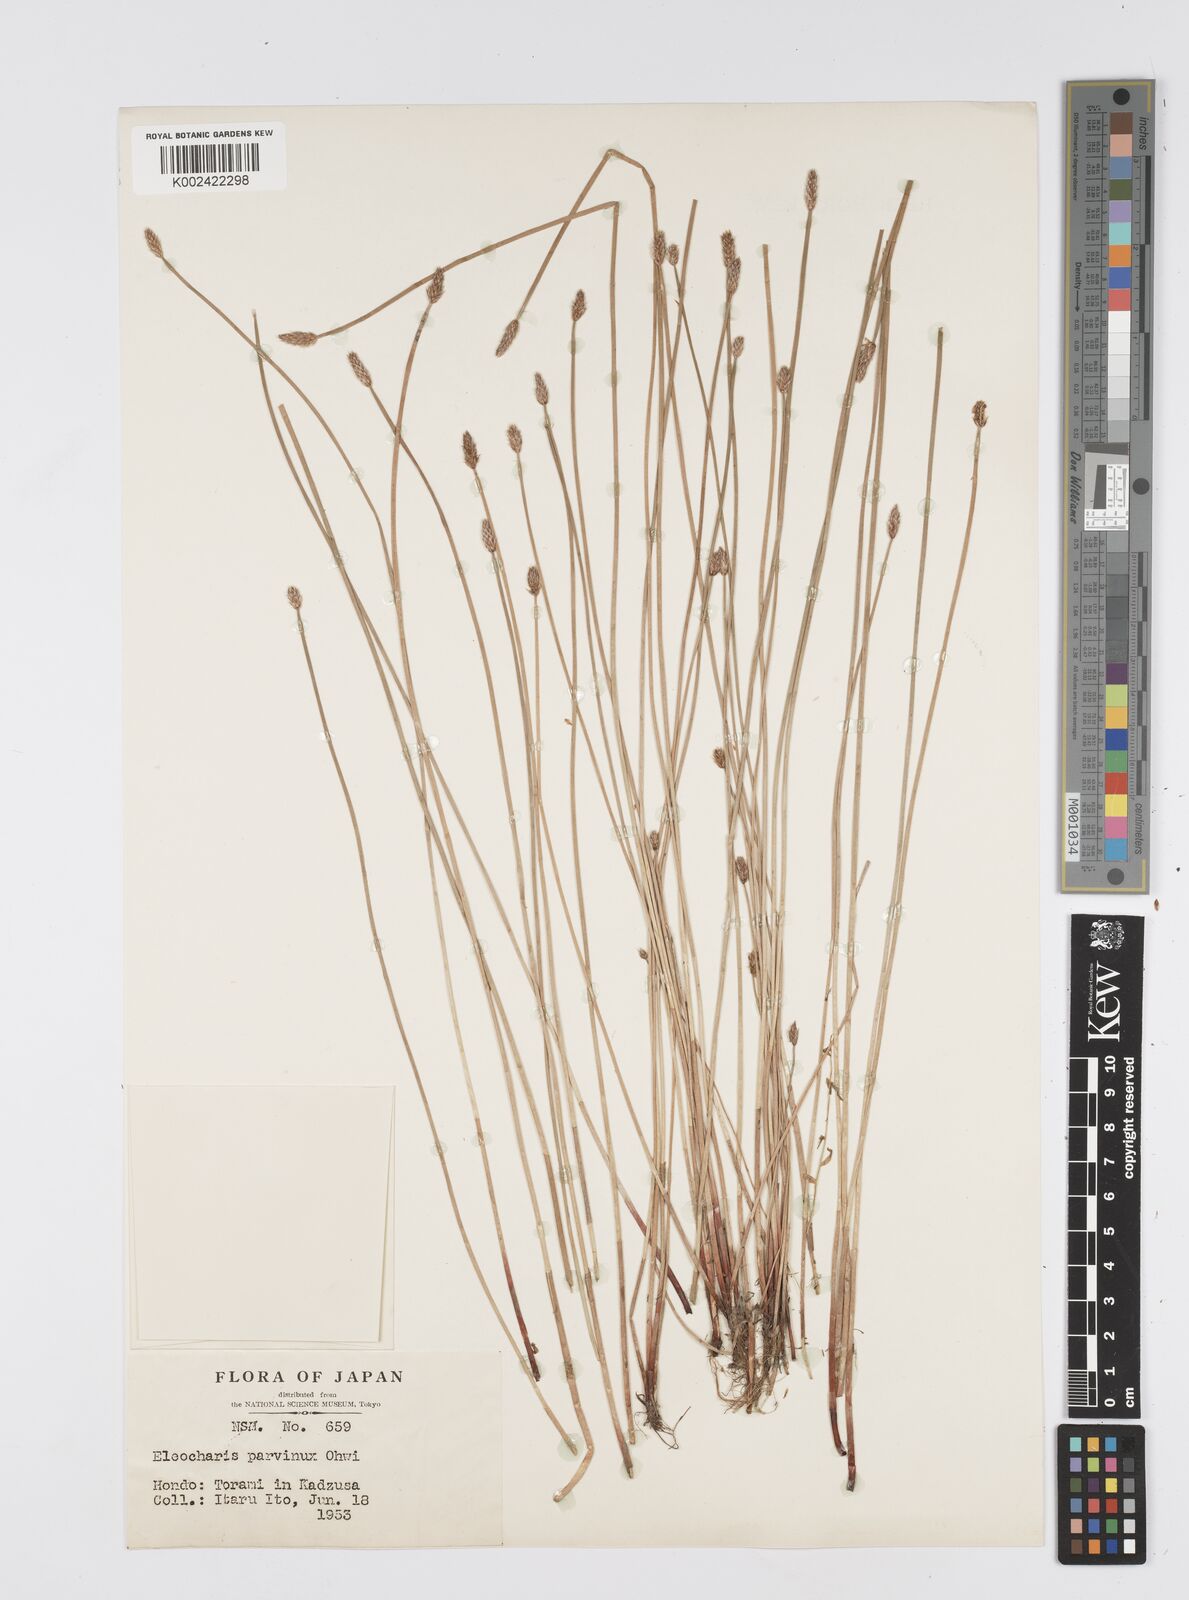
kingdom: Plantae
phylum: Tracheophyta
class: Liliopsida
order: Poales
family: Cyperaceae
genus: Eleocharis
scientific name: Eleocharis parvinux
